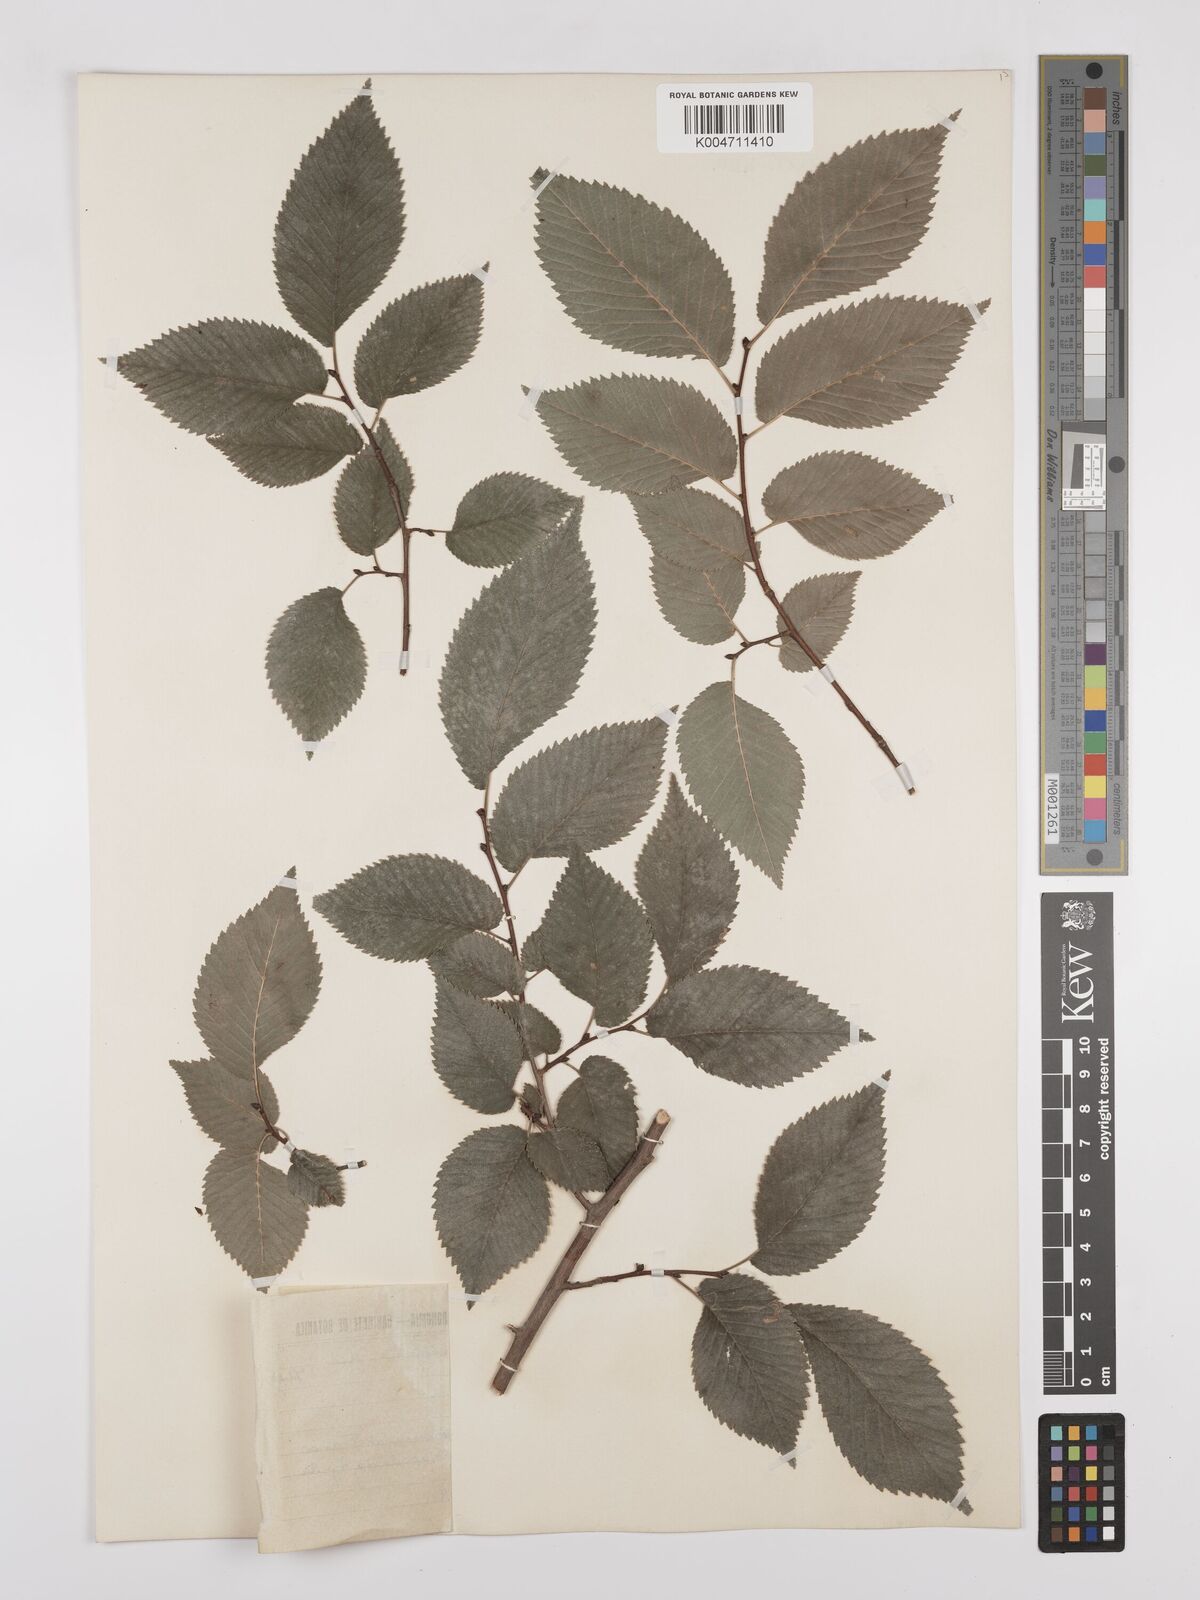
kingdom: Plantae
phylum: Tracheophyta
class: Magnoliopsida
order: Rosales
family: Ulmaceae
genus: Ulmus
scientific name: Ulmus minor
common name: Small-leaved elm
